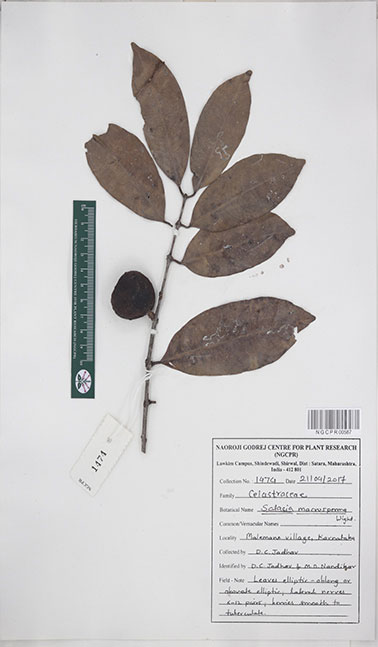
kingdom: Plantae
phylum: Tracheophyta
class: Magnoliopsida
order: Celastrales
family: Celastraceae
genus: Salacia
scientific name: Salacia macrosperma
